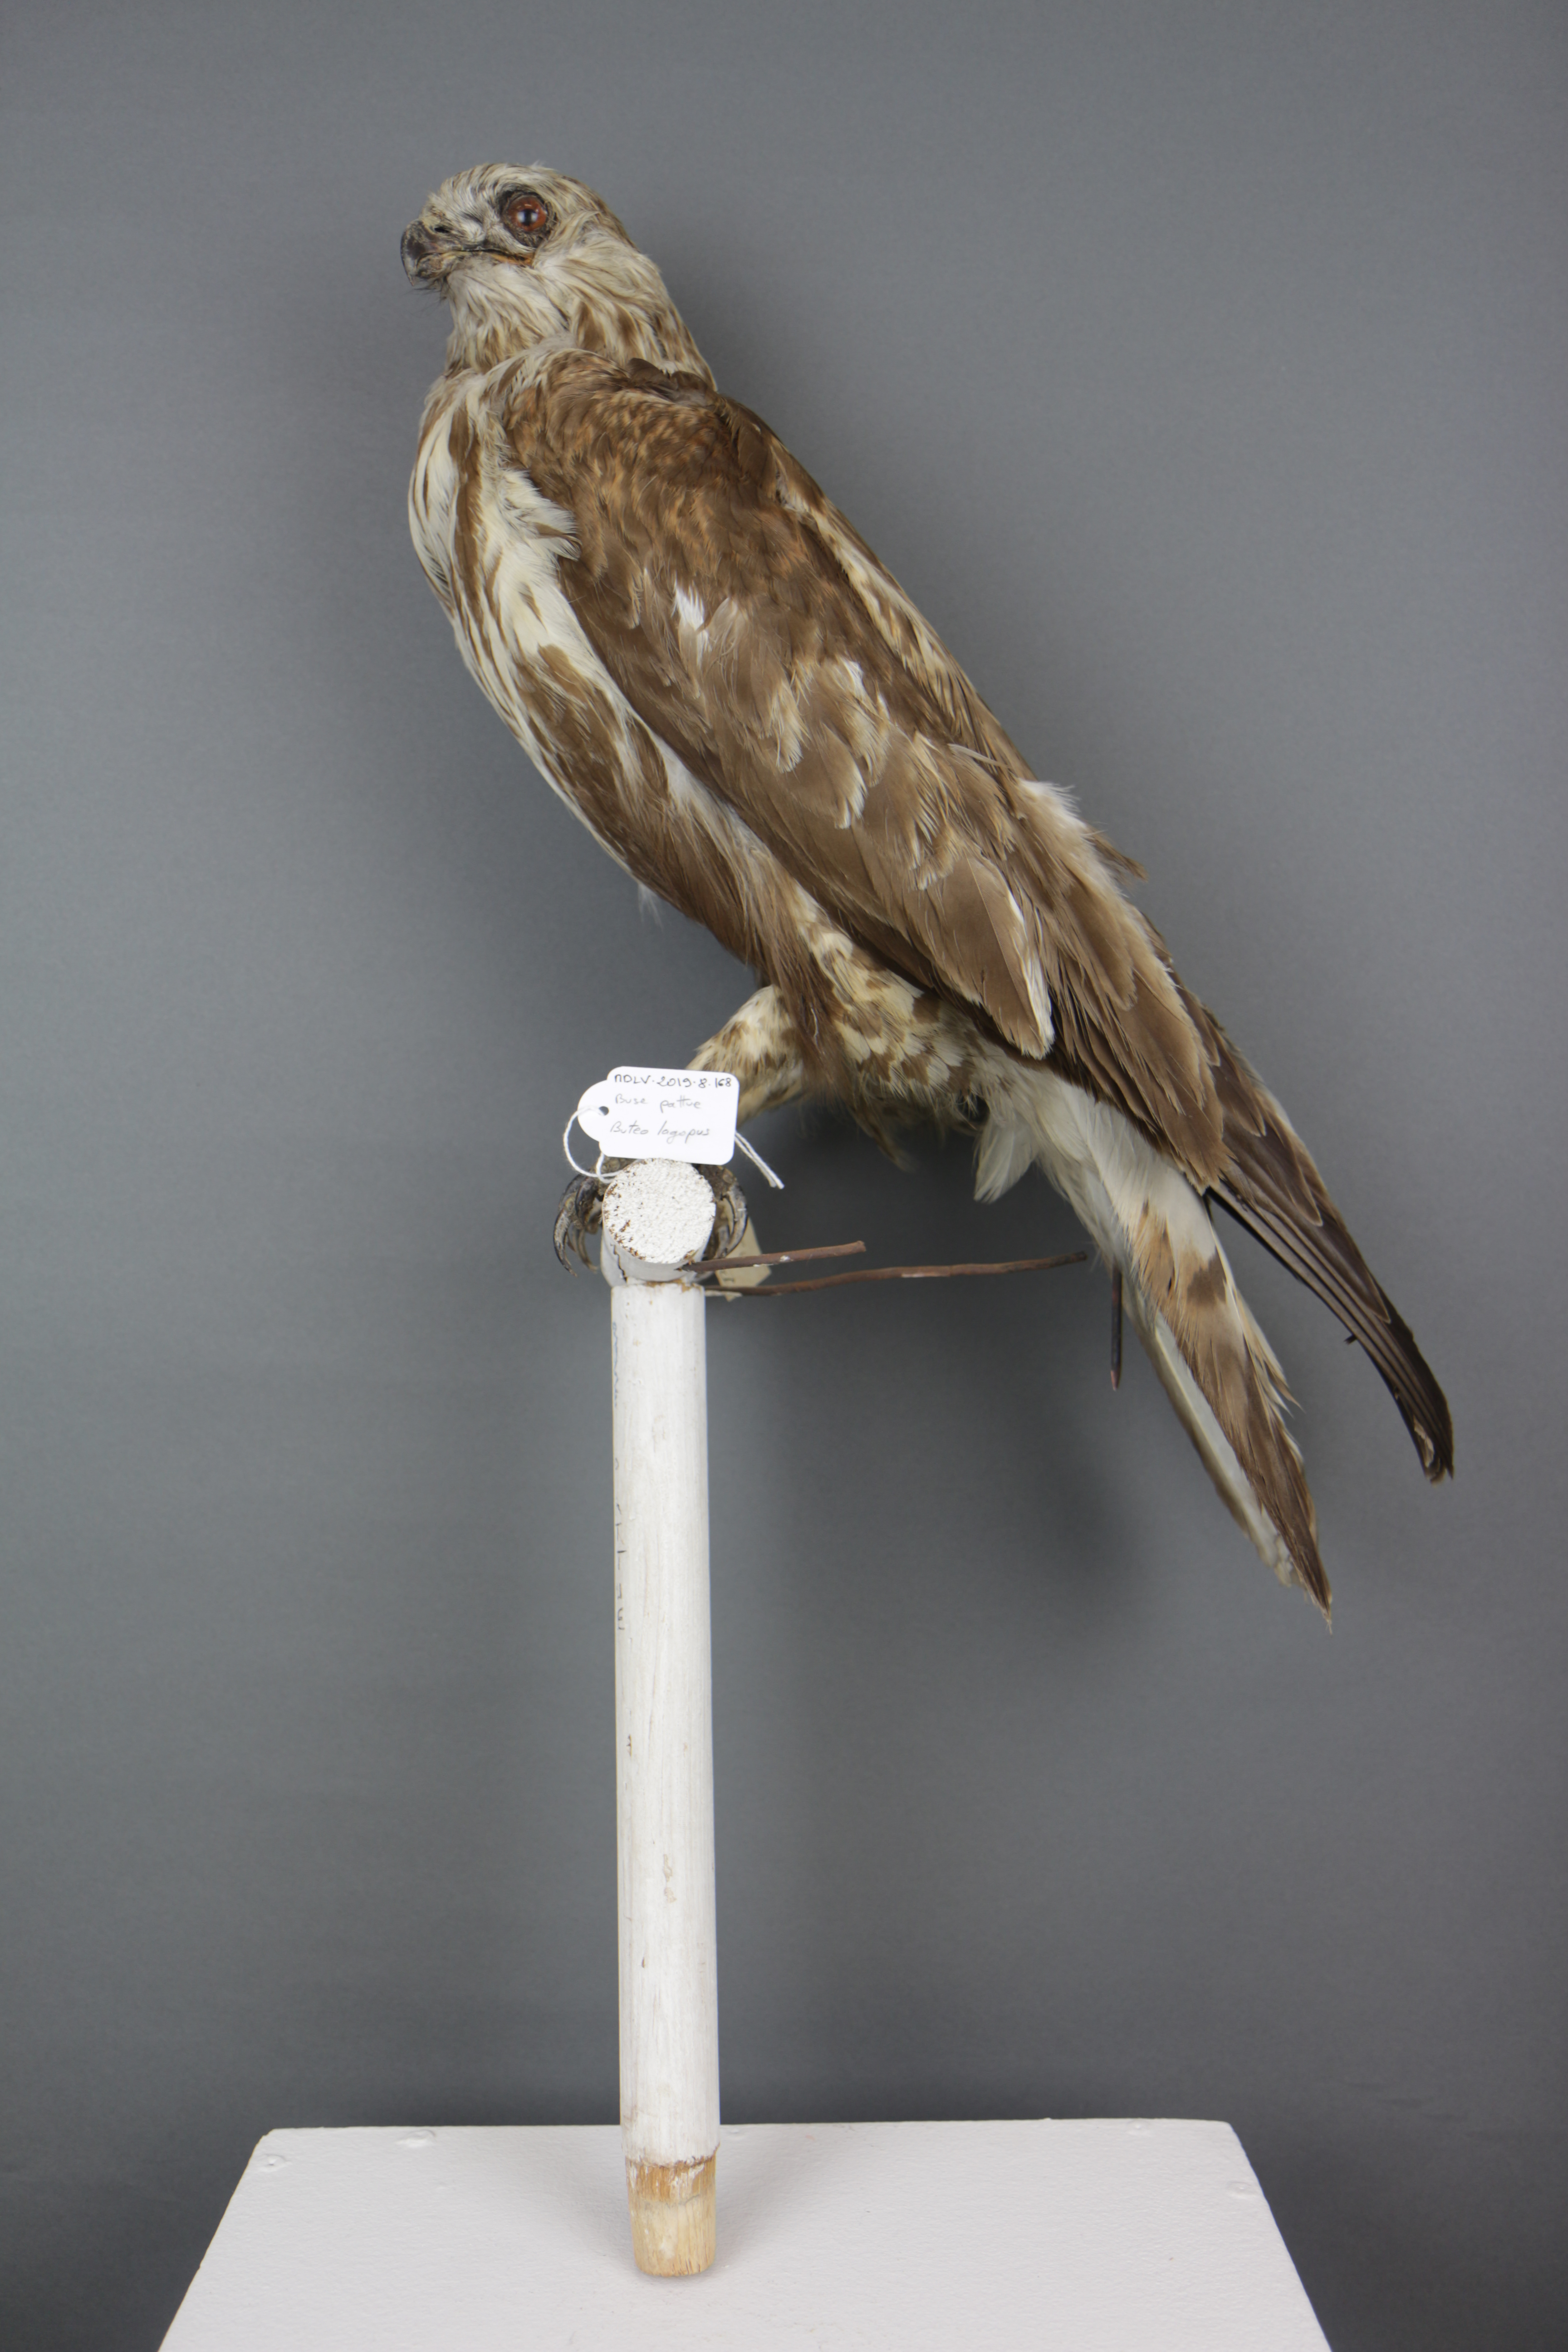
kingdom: Animalia
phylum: Chordata
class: Aves
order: Accipitriformes
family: Accipitridae
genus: Buteo
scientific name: Buteo lagopus
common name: Rough-legged buzzard
